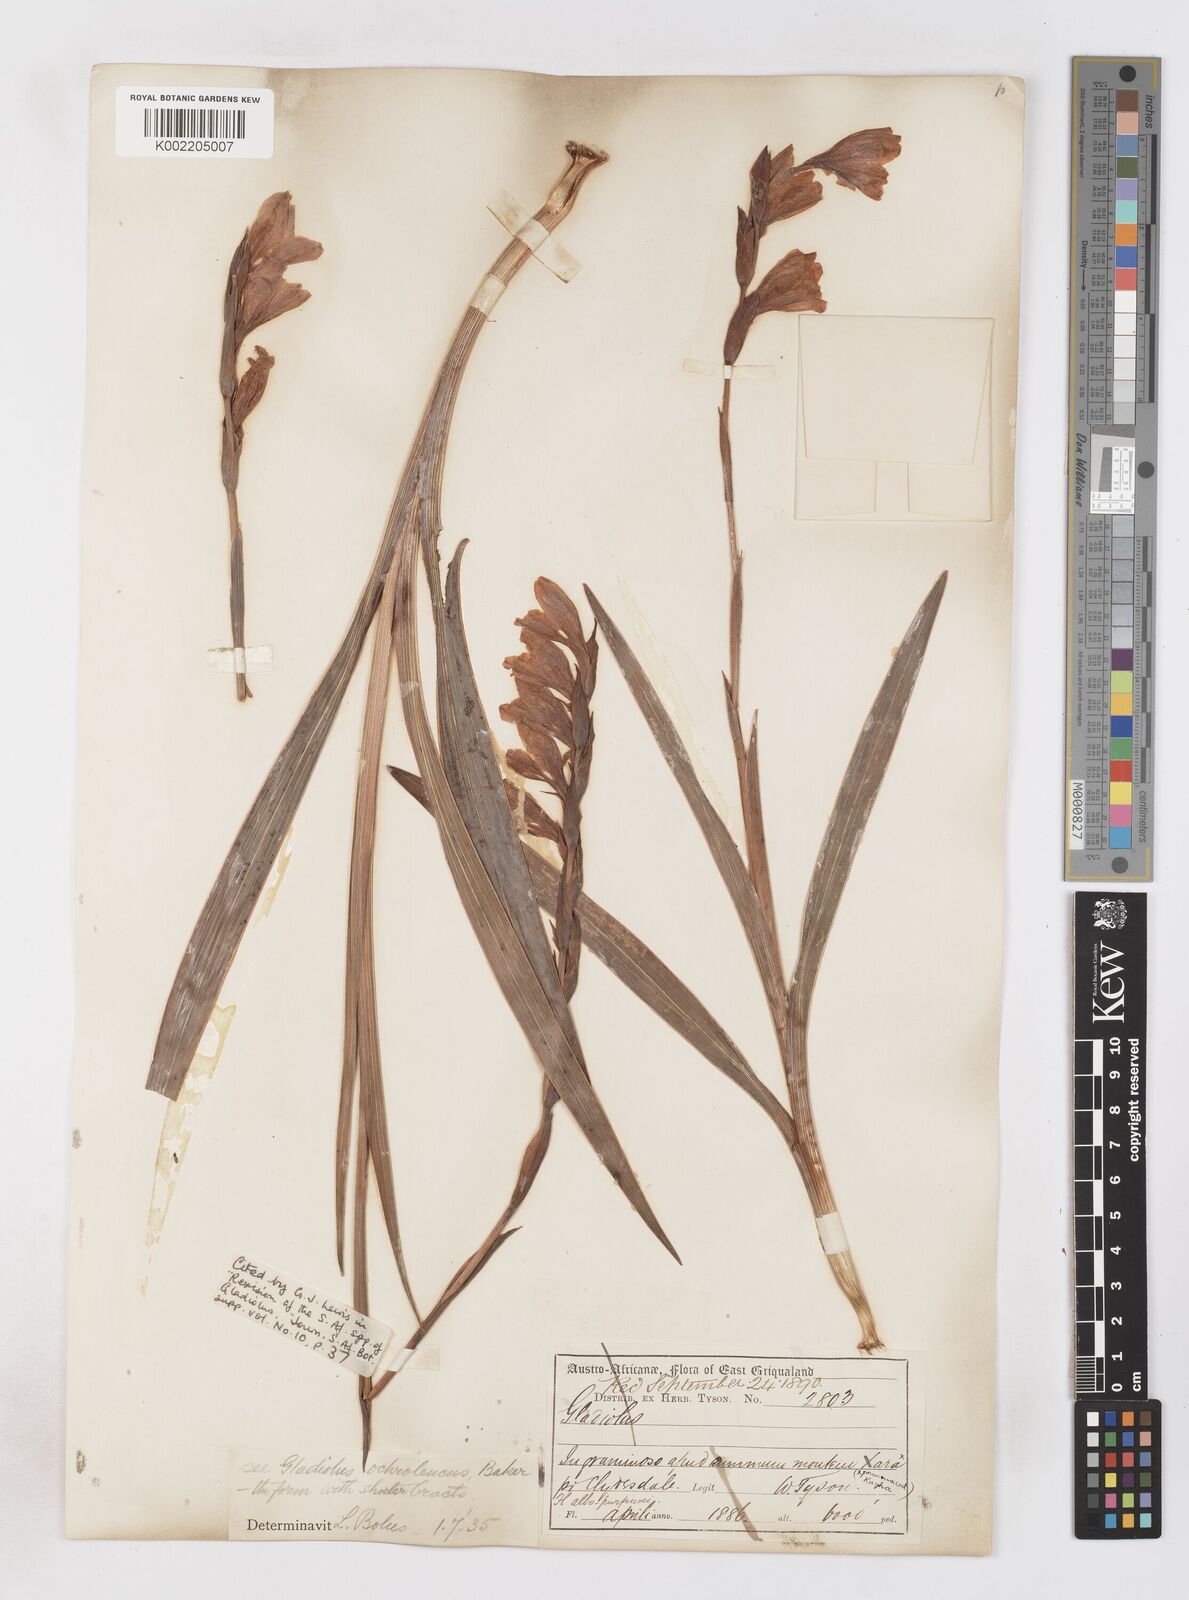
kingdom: Plantae
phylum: Tracheophyta
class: Liliopsida
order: Asparagales
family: Iridaceae
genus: Gladiolus
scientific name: Gladiolus ochroleucus
